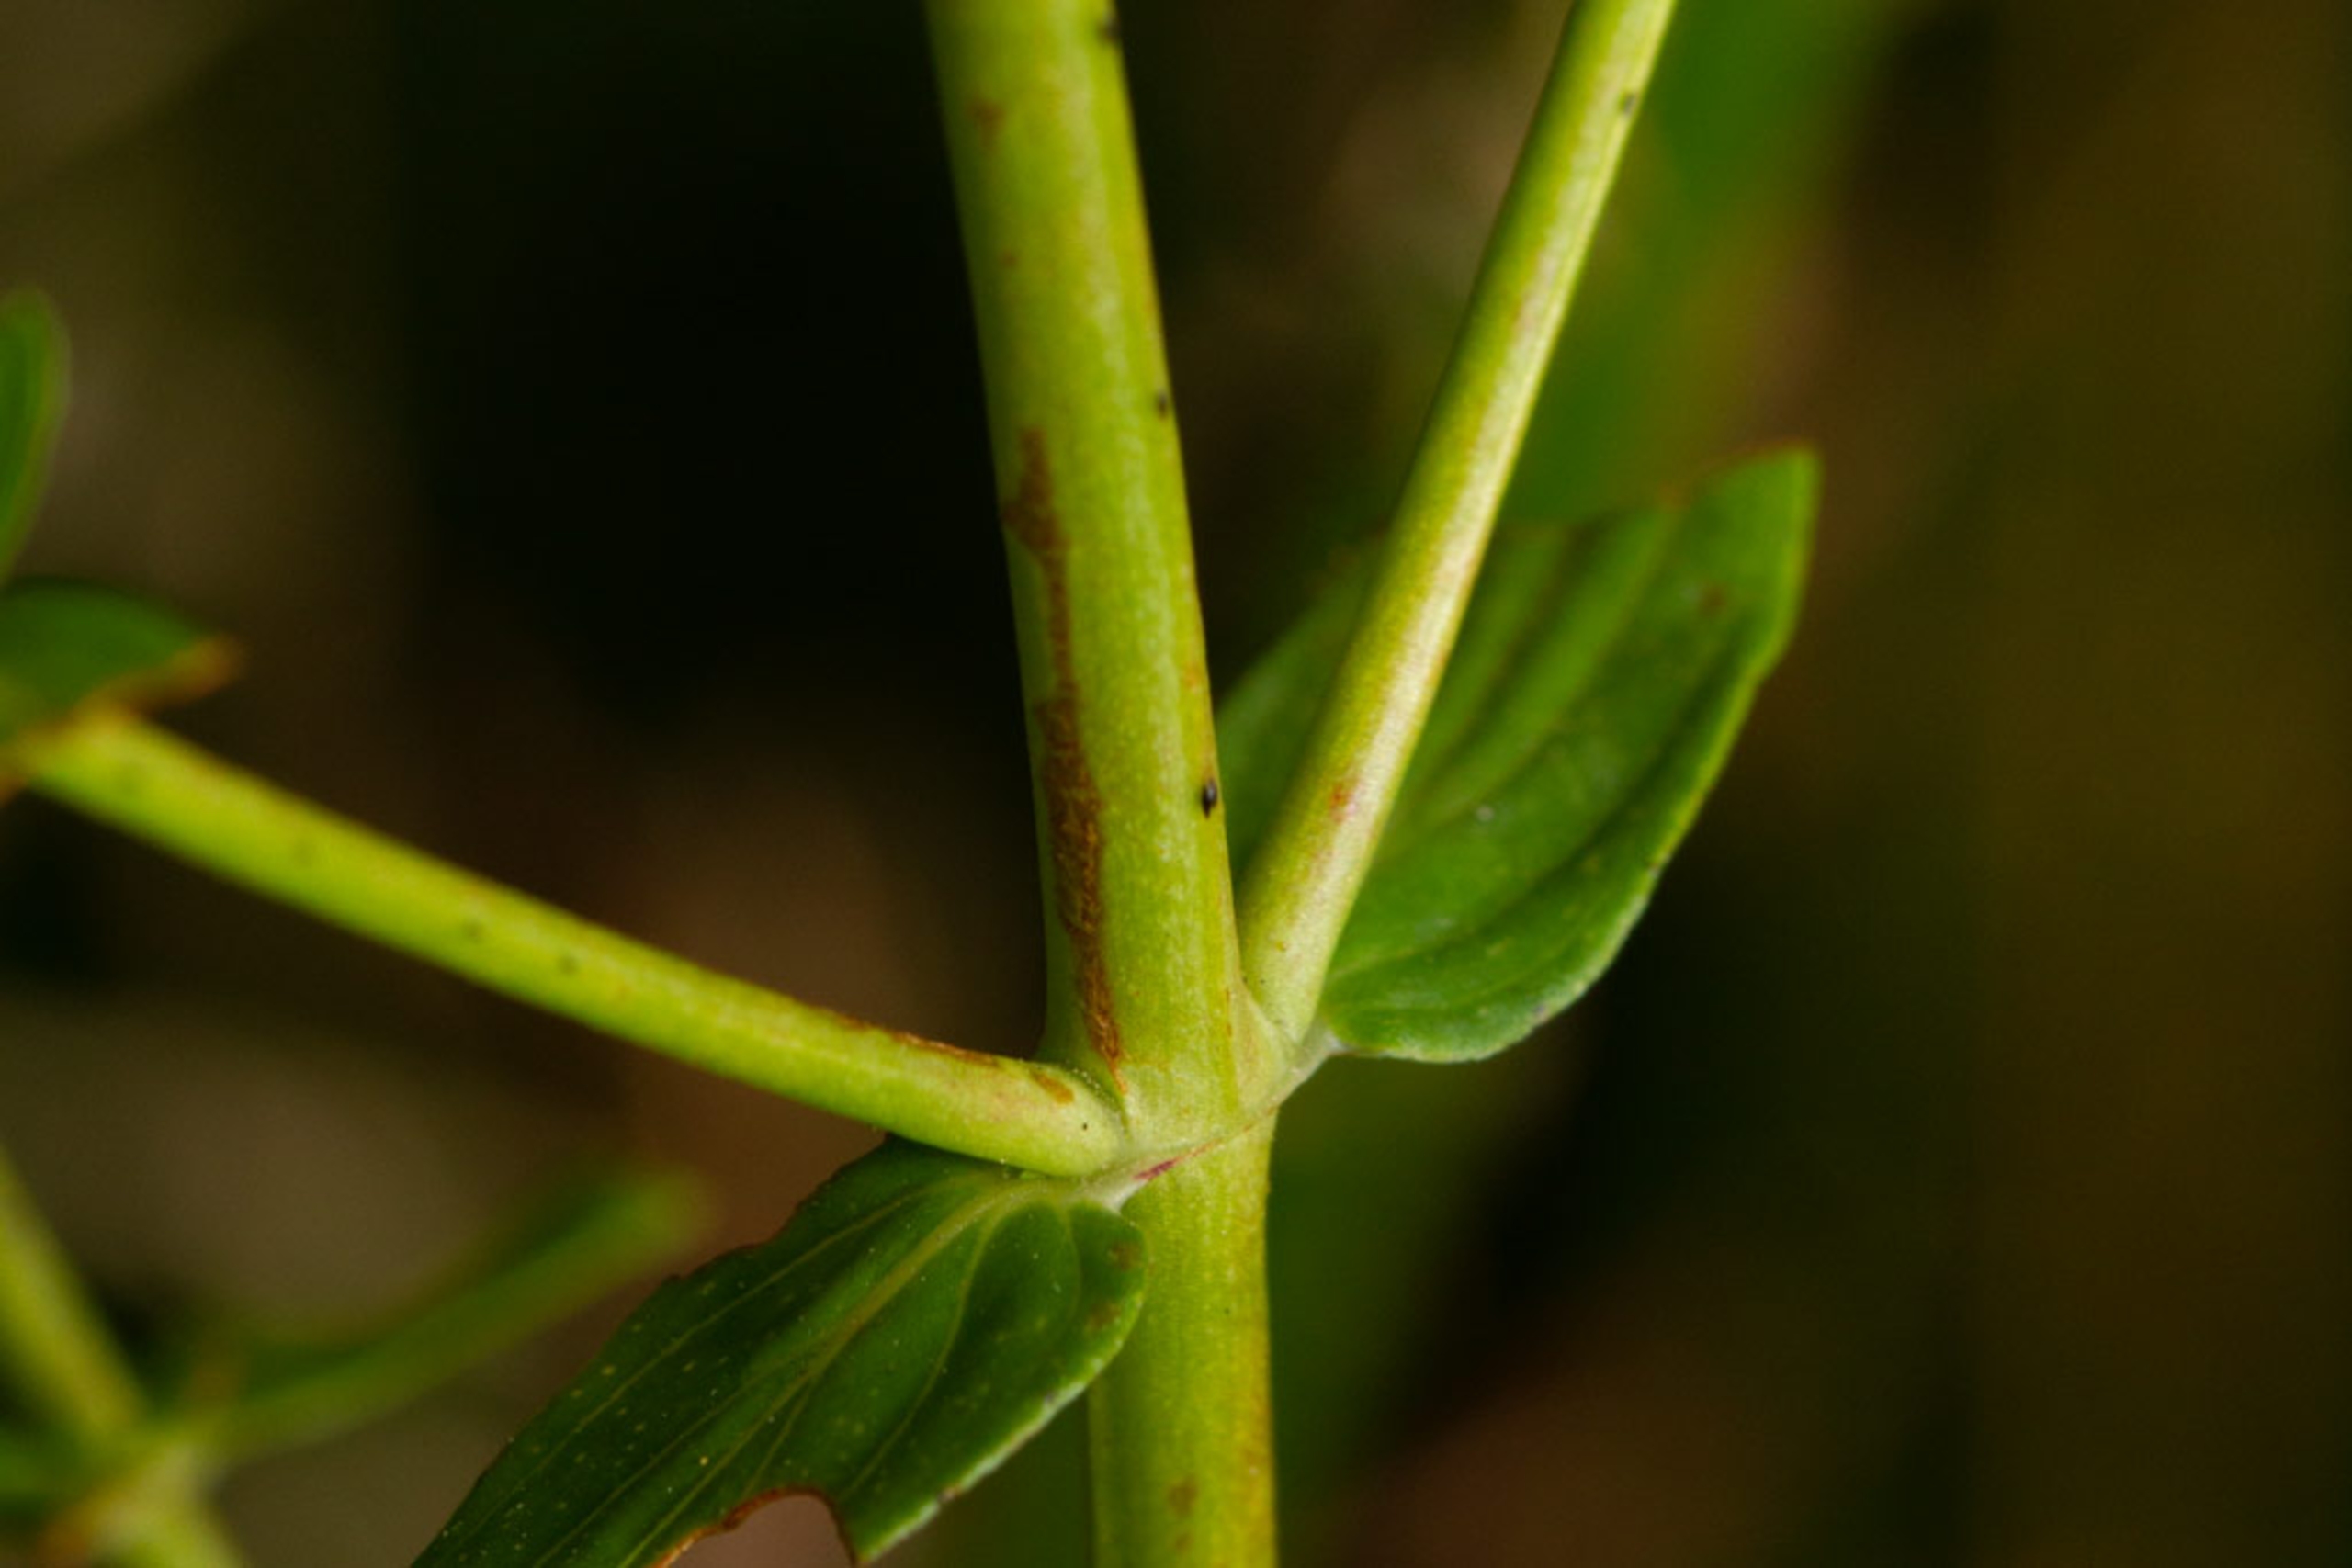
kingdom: Plantae
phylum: Tracheophyta
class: Magnoliopsida
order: Malpighiales
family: Hypericaceae
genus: Hypericum
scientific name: Hypericum perforatum
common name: Prikbladet perikon
